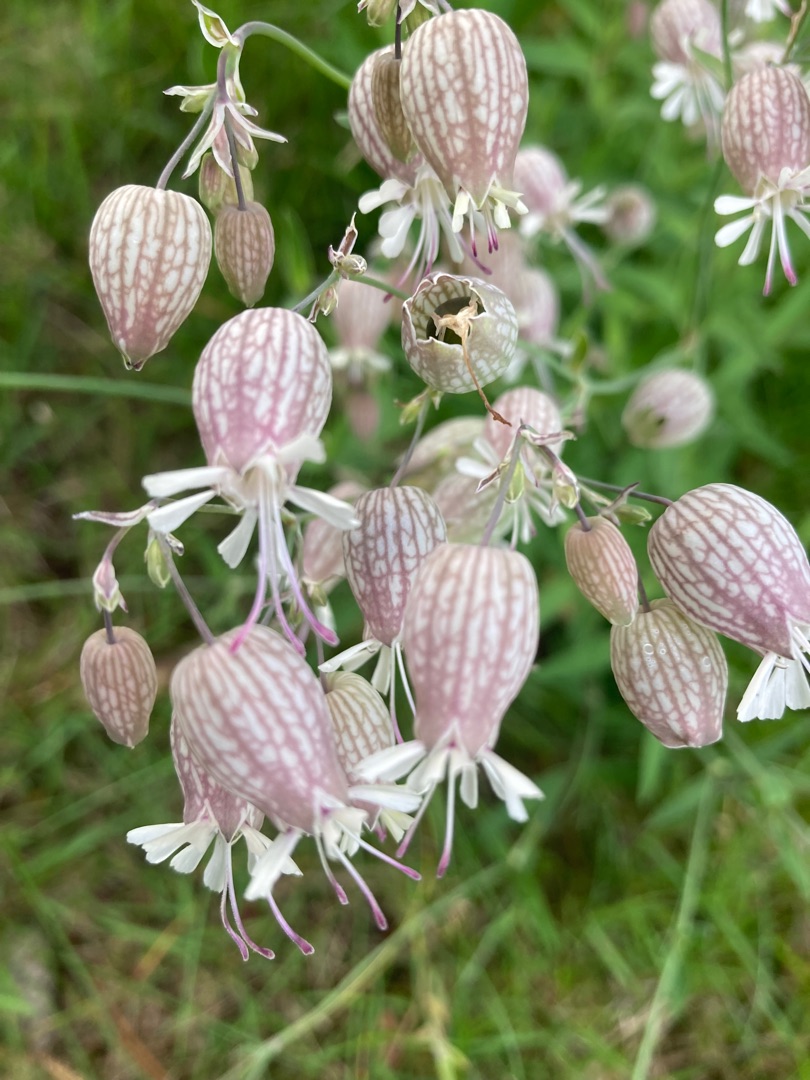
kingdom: Plantae
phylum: Tracheophyta
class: Magnoliopsida
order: Caryophyllales
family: Caryophyllaceae
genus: Silene
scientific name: Silene vulgaris
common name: Blæresmælde
